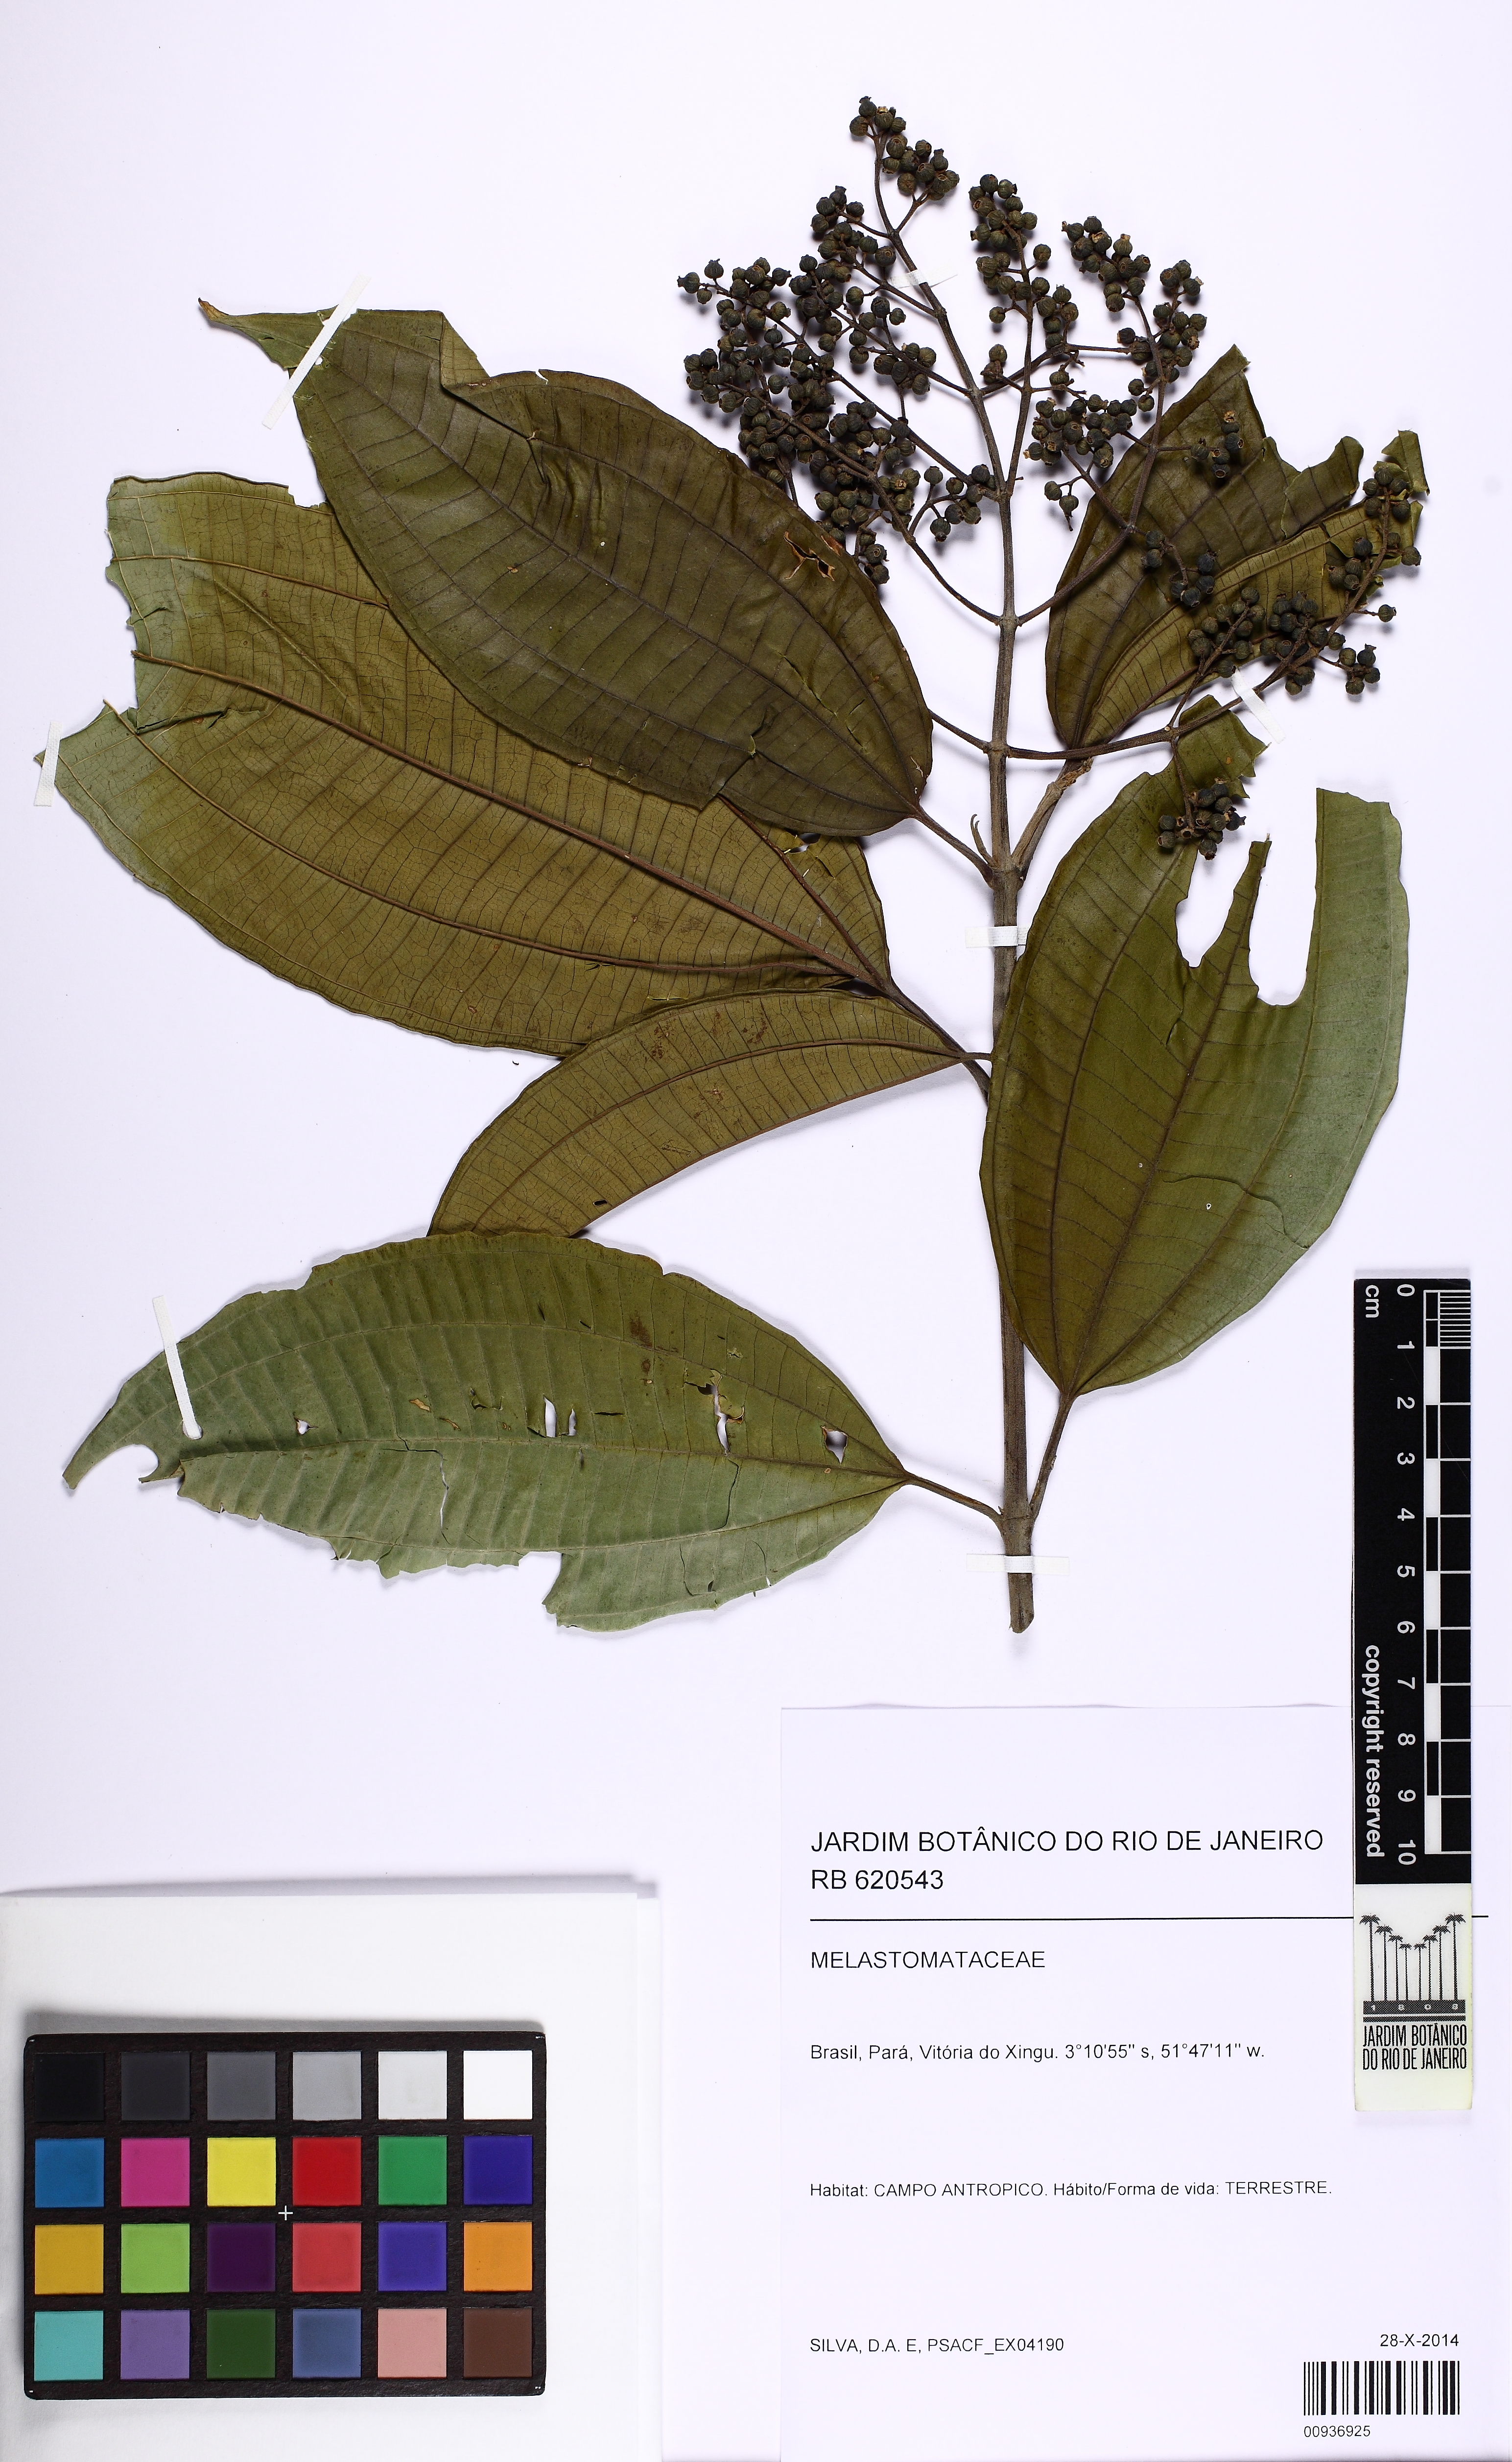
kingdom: Plantae
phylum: Tracheophyta
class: Magnoliopsida
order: Myrtales
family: Melastomataceae
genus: Miconia
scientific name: Miconia affinis
